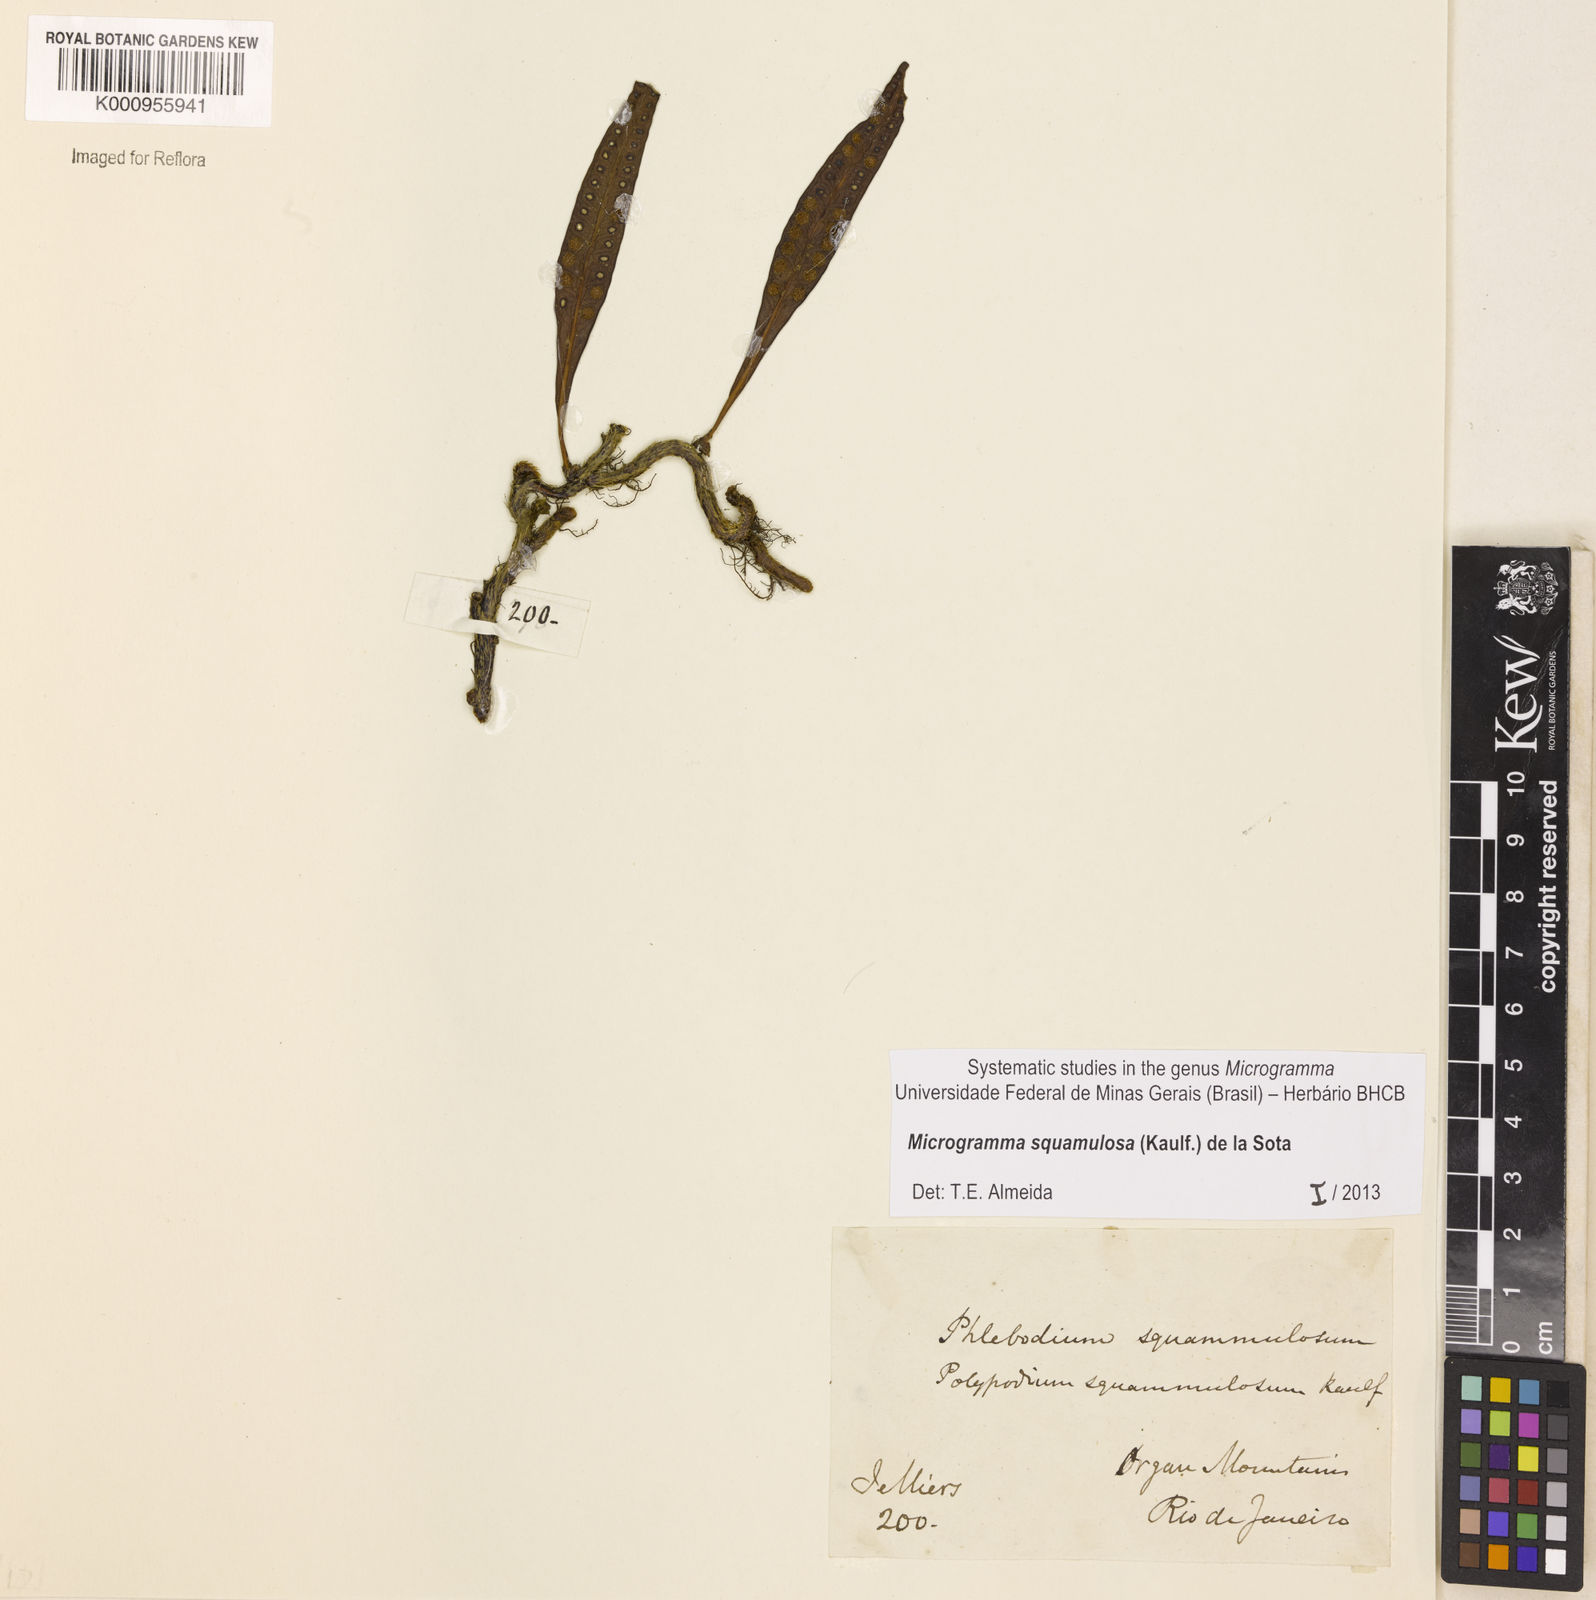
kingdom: Plantae
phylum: Tracheophyta
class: Polypodiopsida
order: Polypodiales
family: Polypodiaceae
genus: Microgramma
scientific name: Microgramma squamulosa
